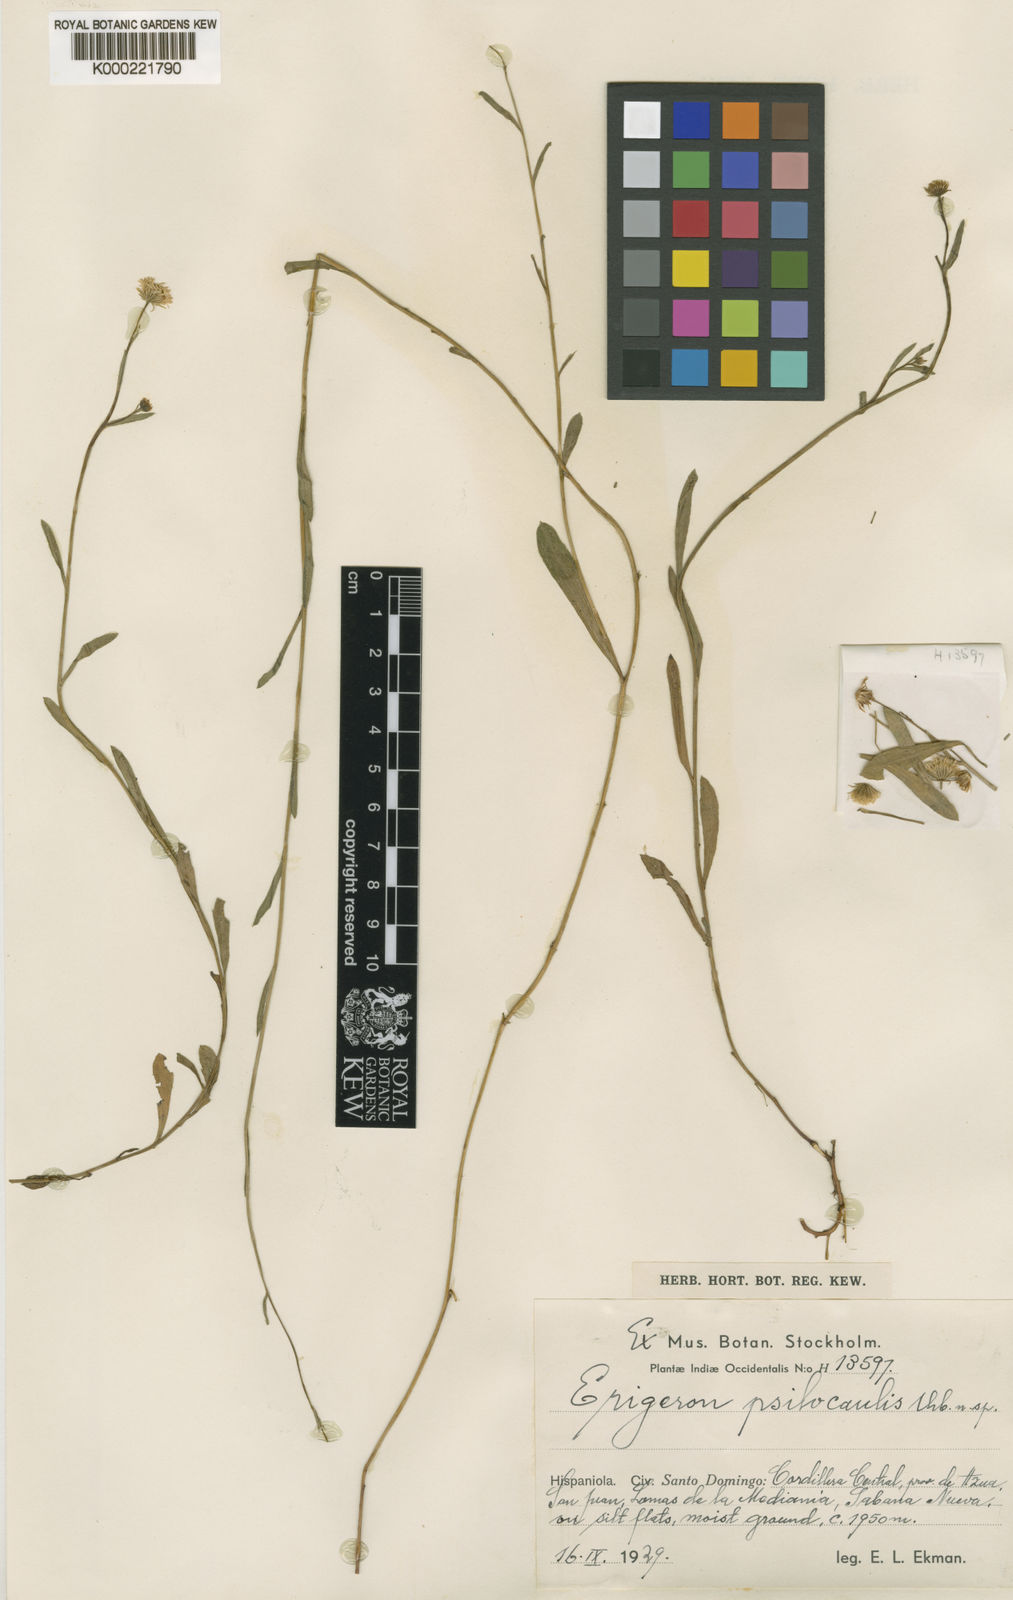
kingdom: Plantae
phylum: Tracheophyta
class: Magnoliopsida
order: Asterales
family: Asteraceae
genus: Erigeron
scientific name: Erigeron psilocaulis
